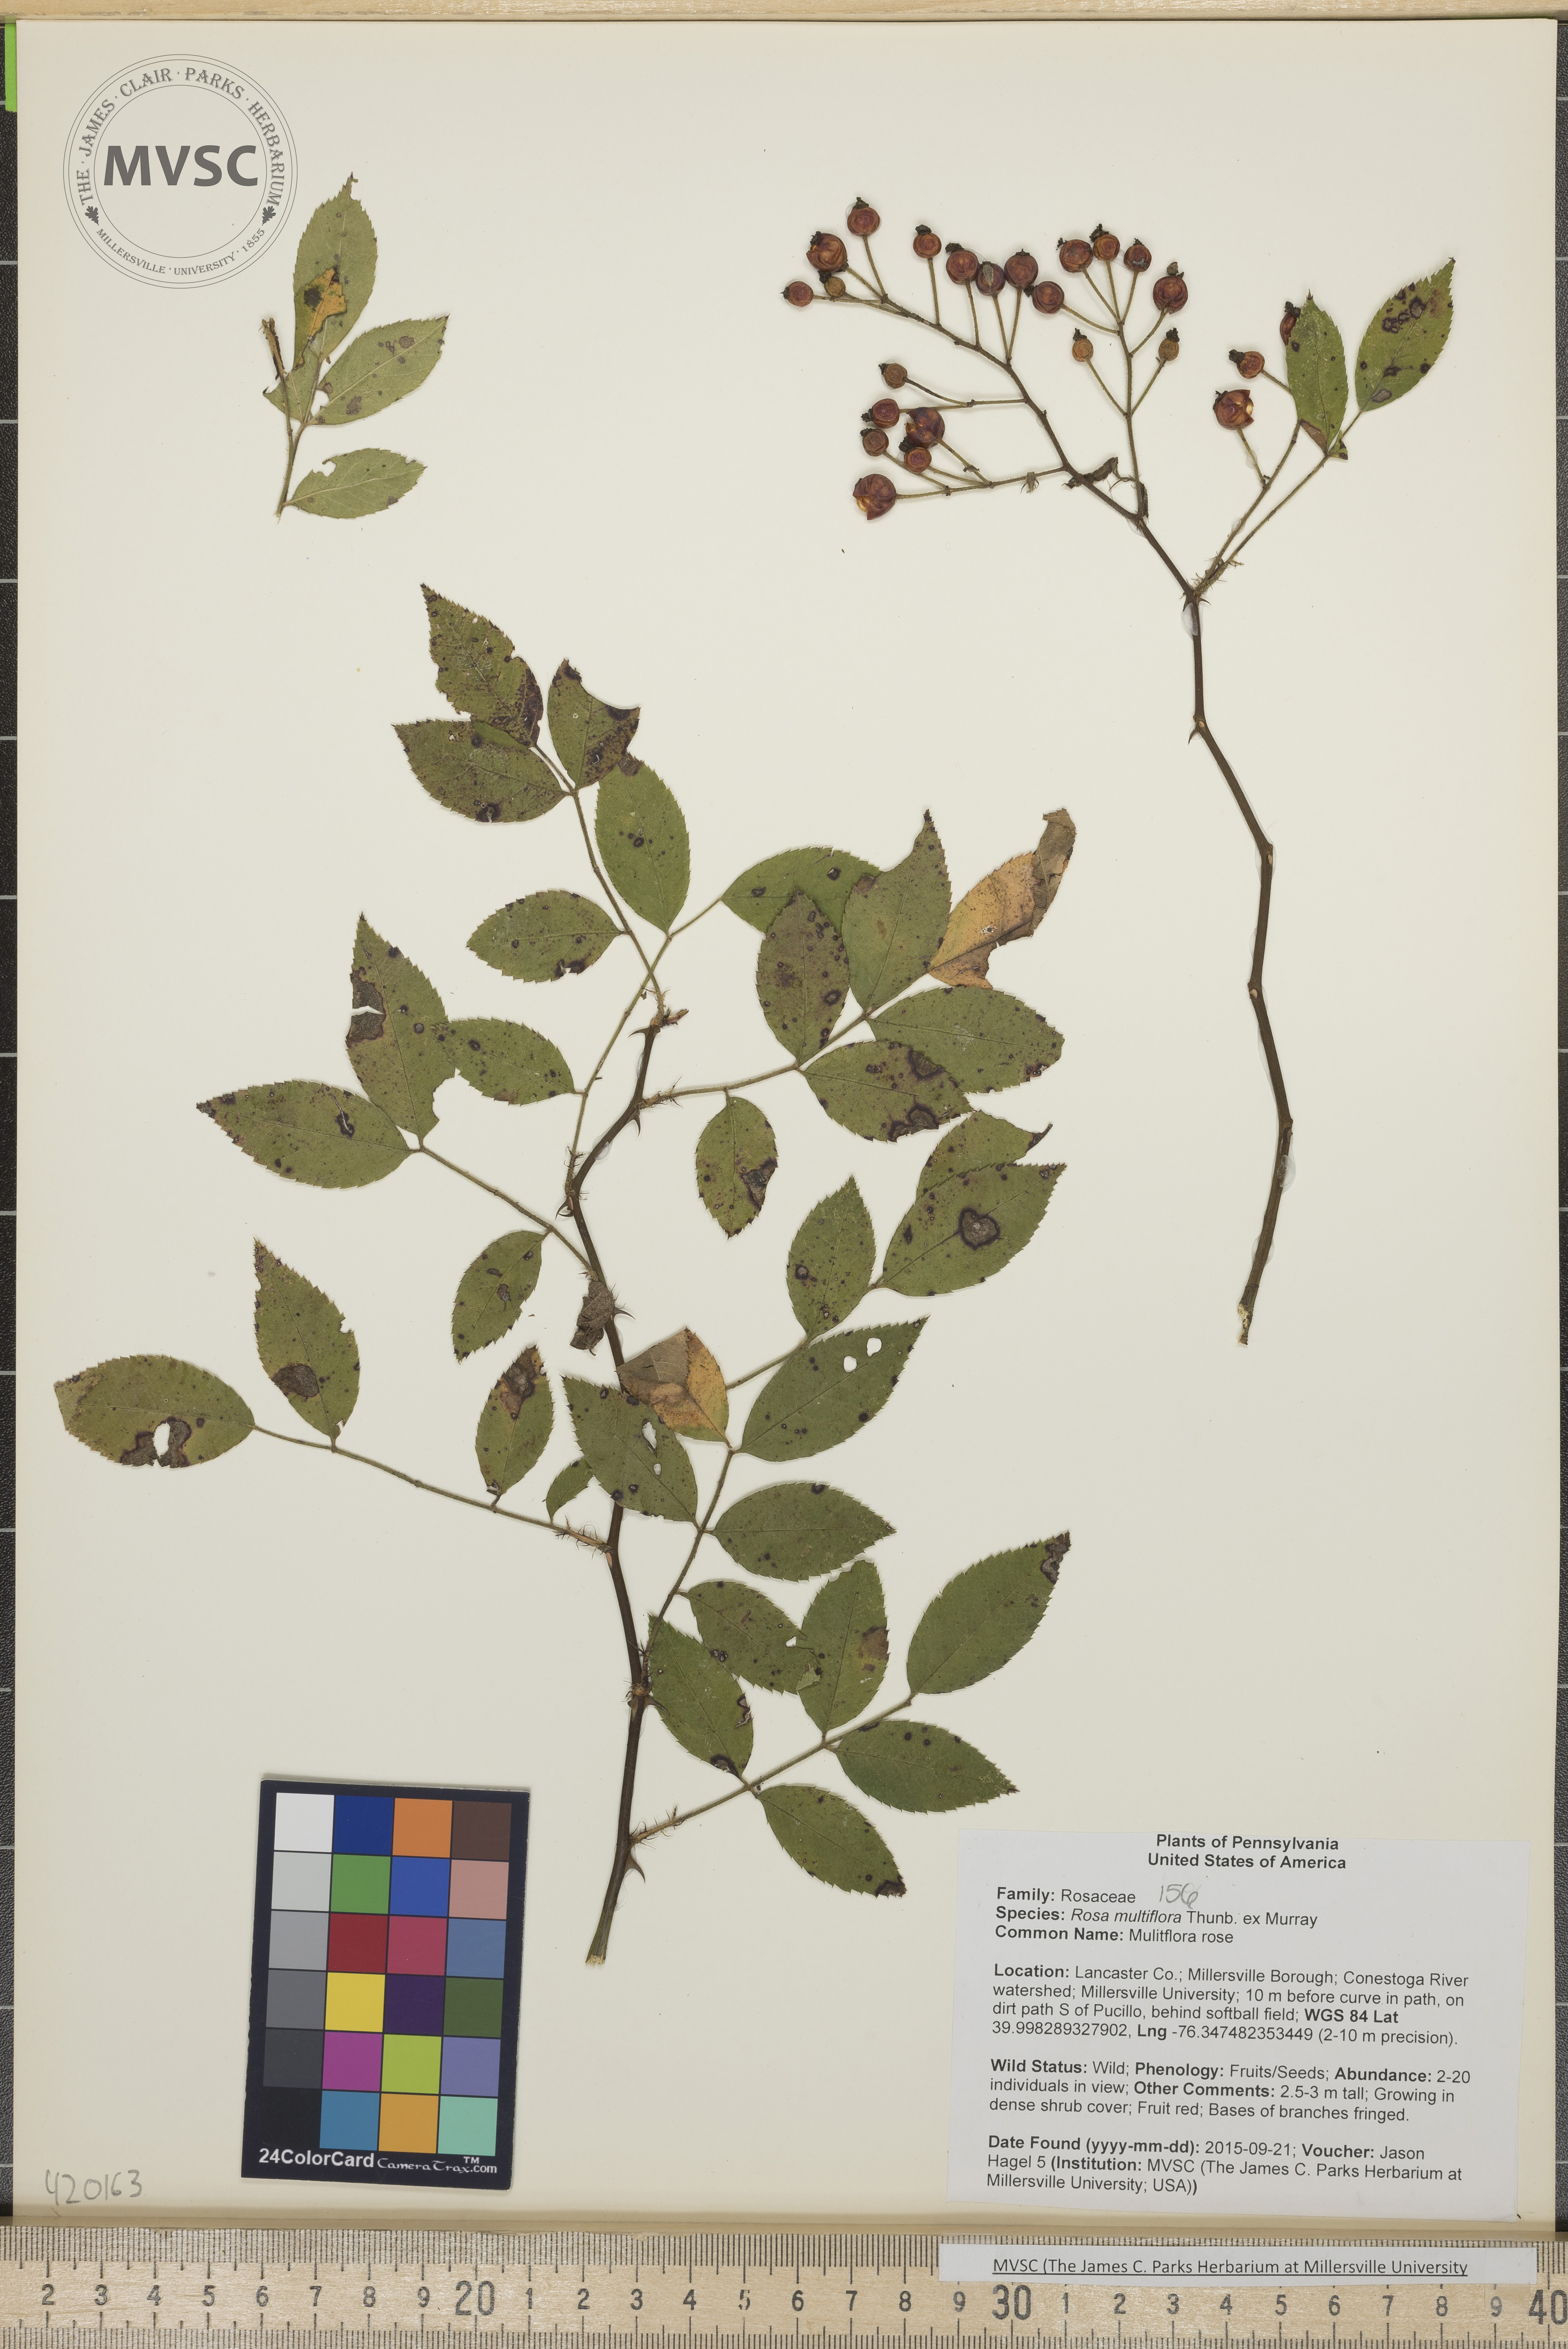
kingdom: Plantae
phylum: Tracheophyta
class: Magnoliopsida
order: Rosales
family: Rosaceae
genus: Rosa
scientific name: Rosa multiflora
